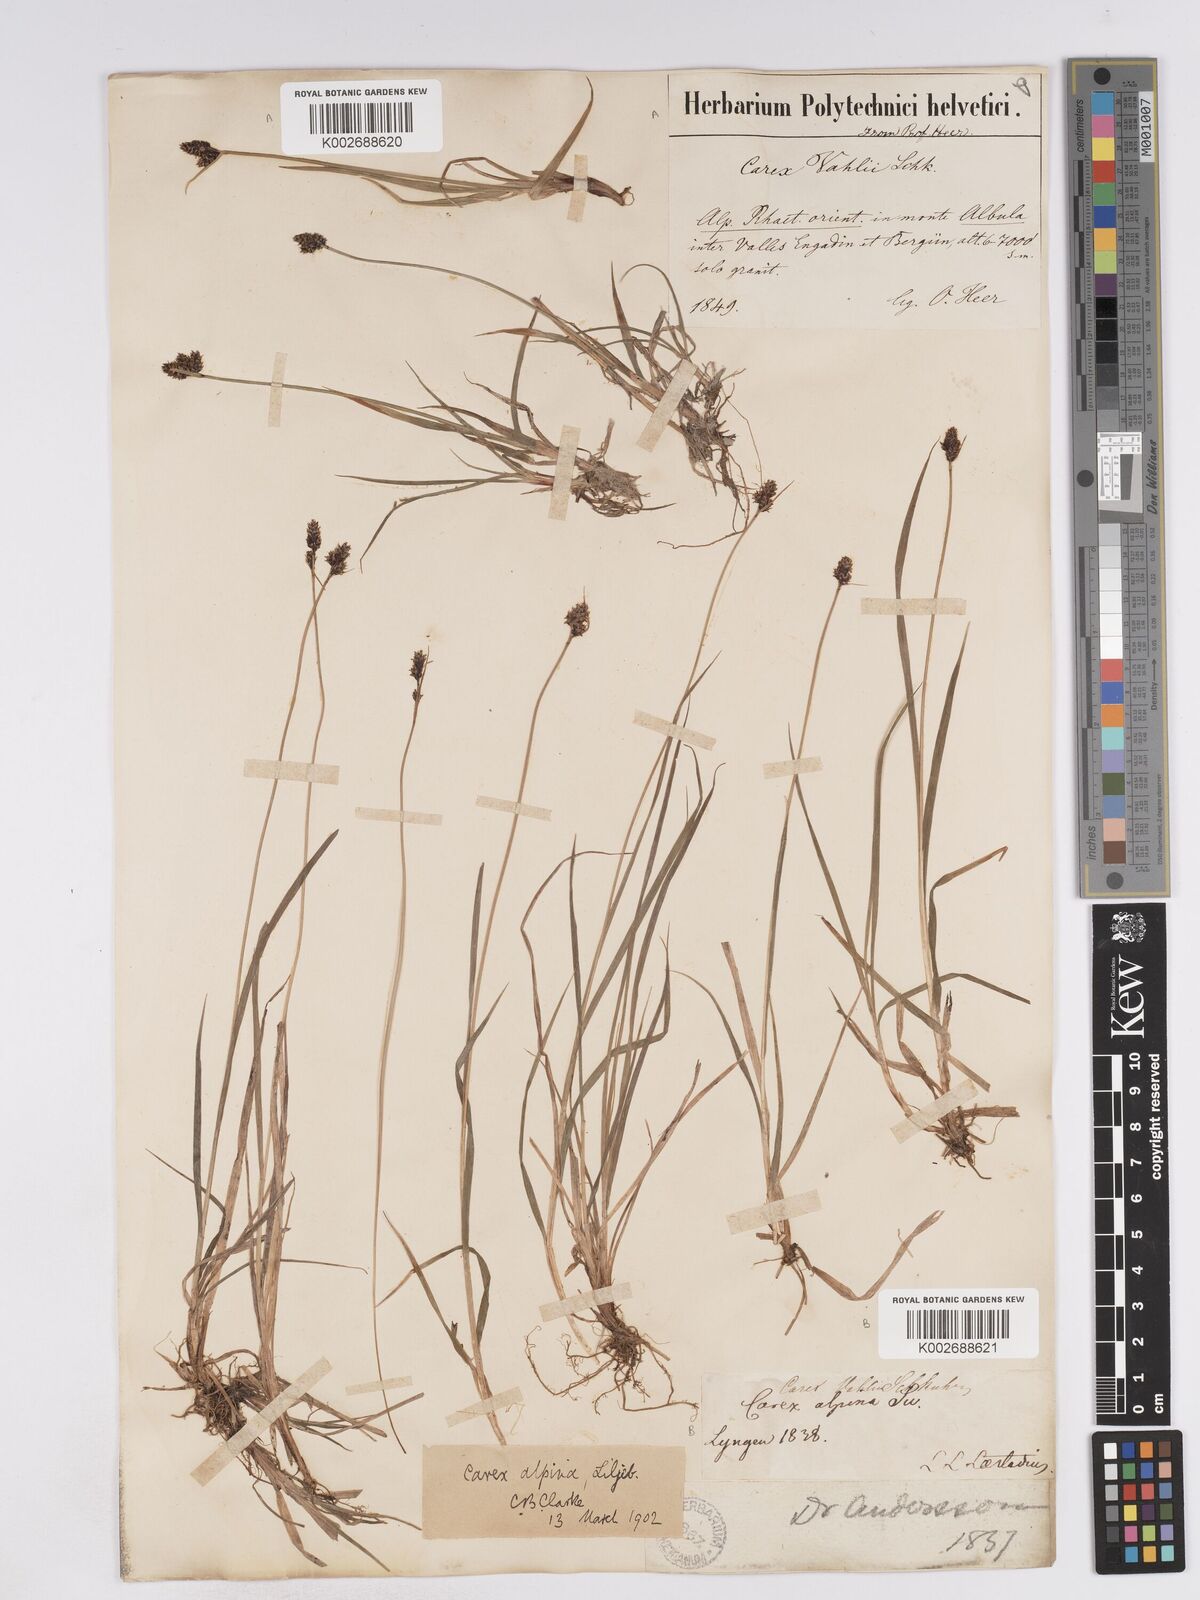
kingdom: Plantae
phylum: Tracheophyta
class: Liliopsida
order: Poales
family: Cyperaceae
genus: Carex
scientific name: Carex norvegica
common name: Close-headed alpine-sedge
